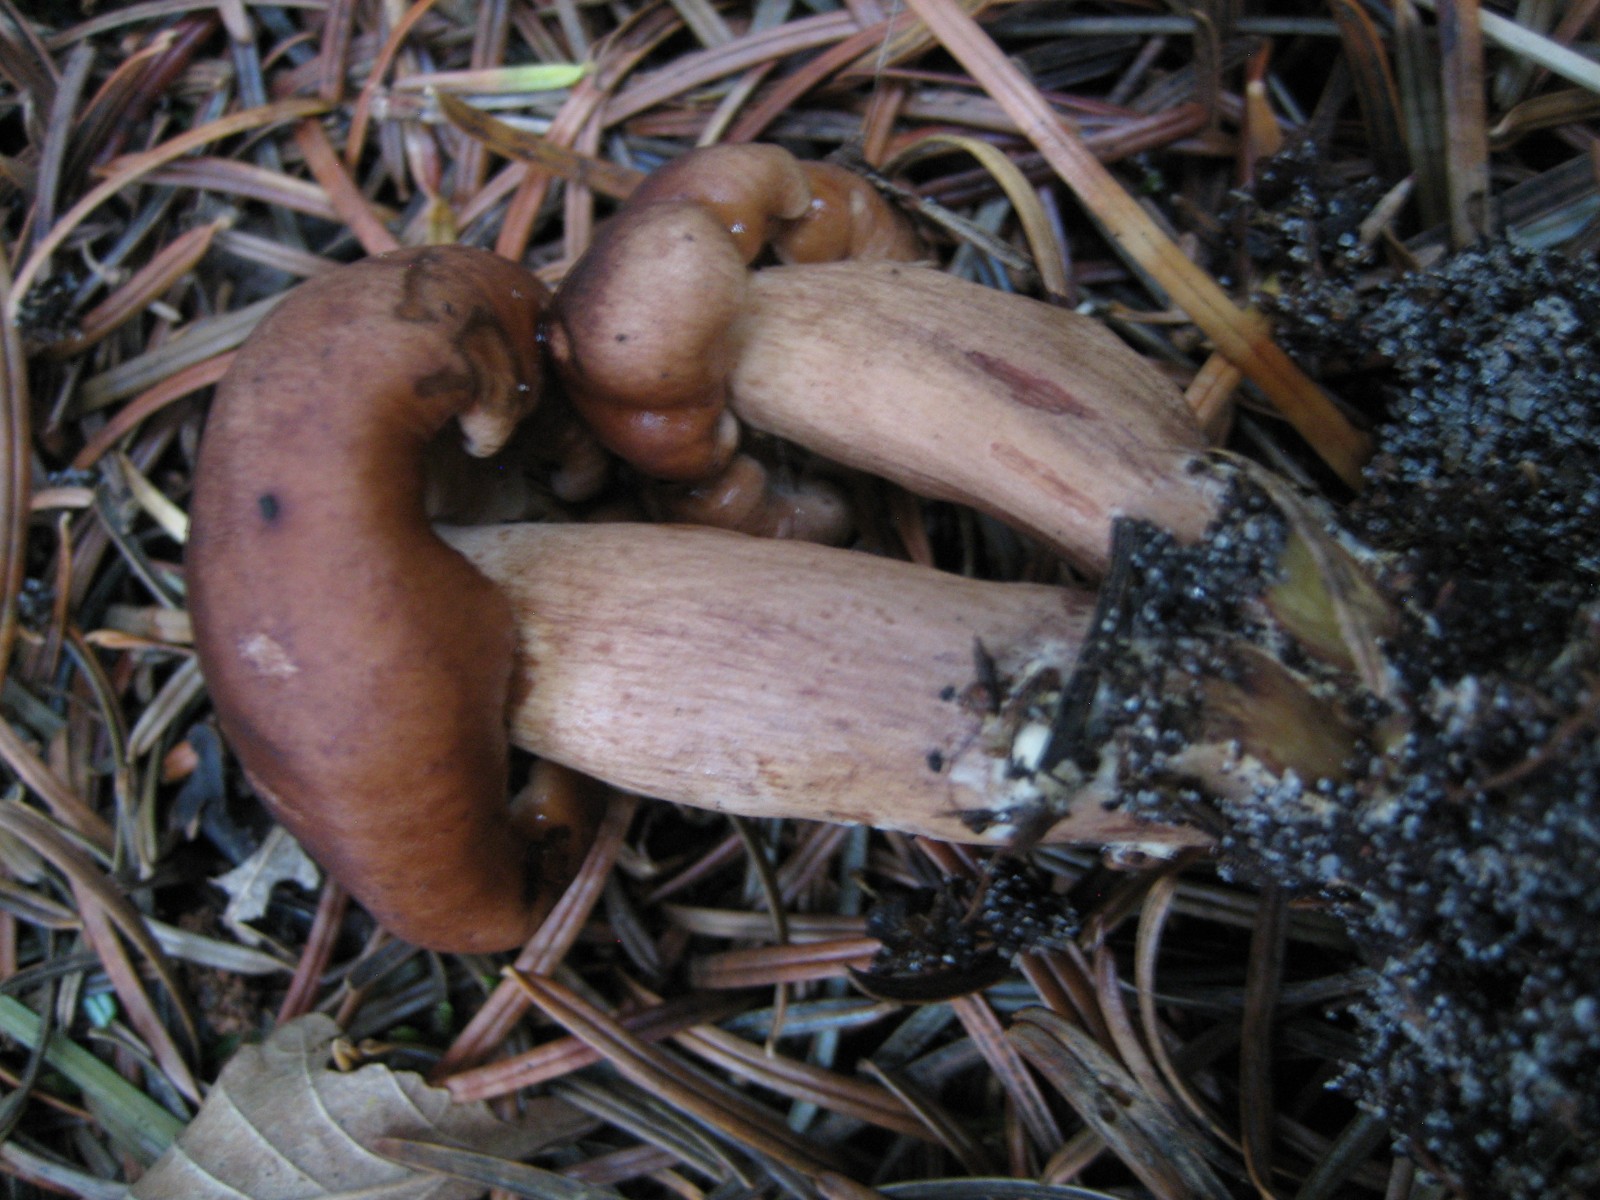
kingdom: Fungi
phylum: Basidiomycota
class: Agaricomycetes
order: Agaricales
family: Tricholomataceae
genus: Tricholoma
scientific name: Tricholoma fulvum
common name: birke-ridderhat
